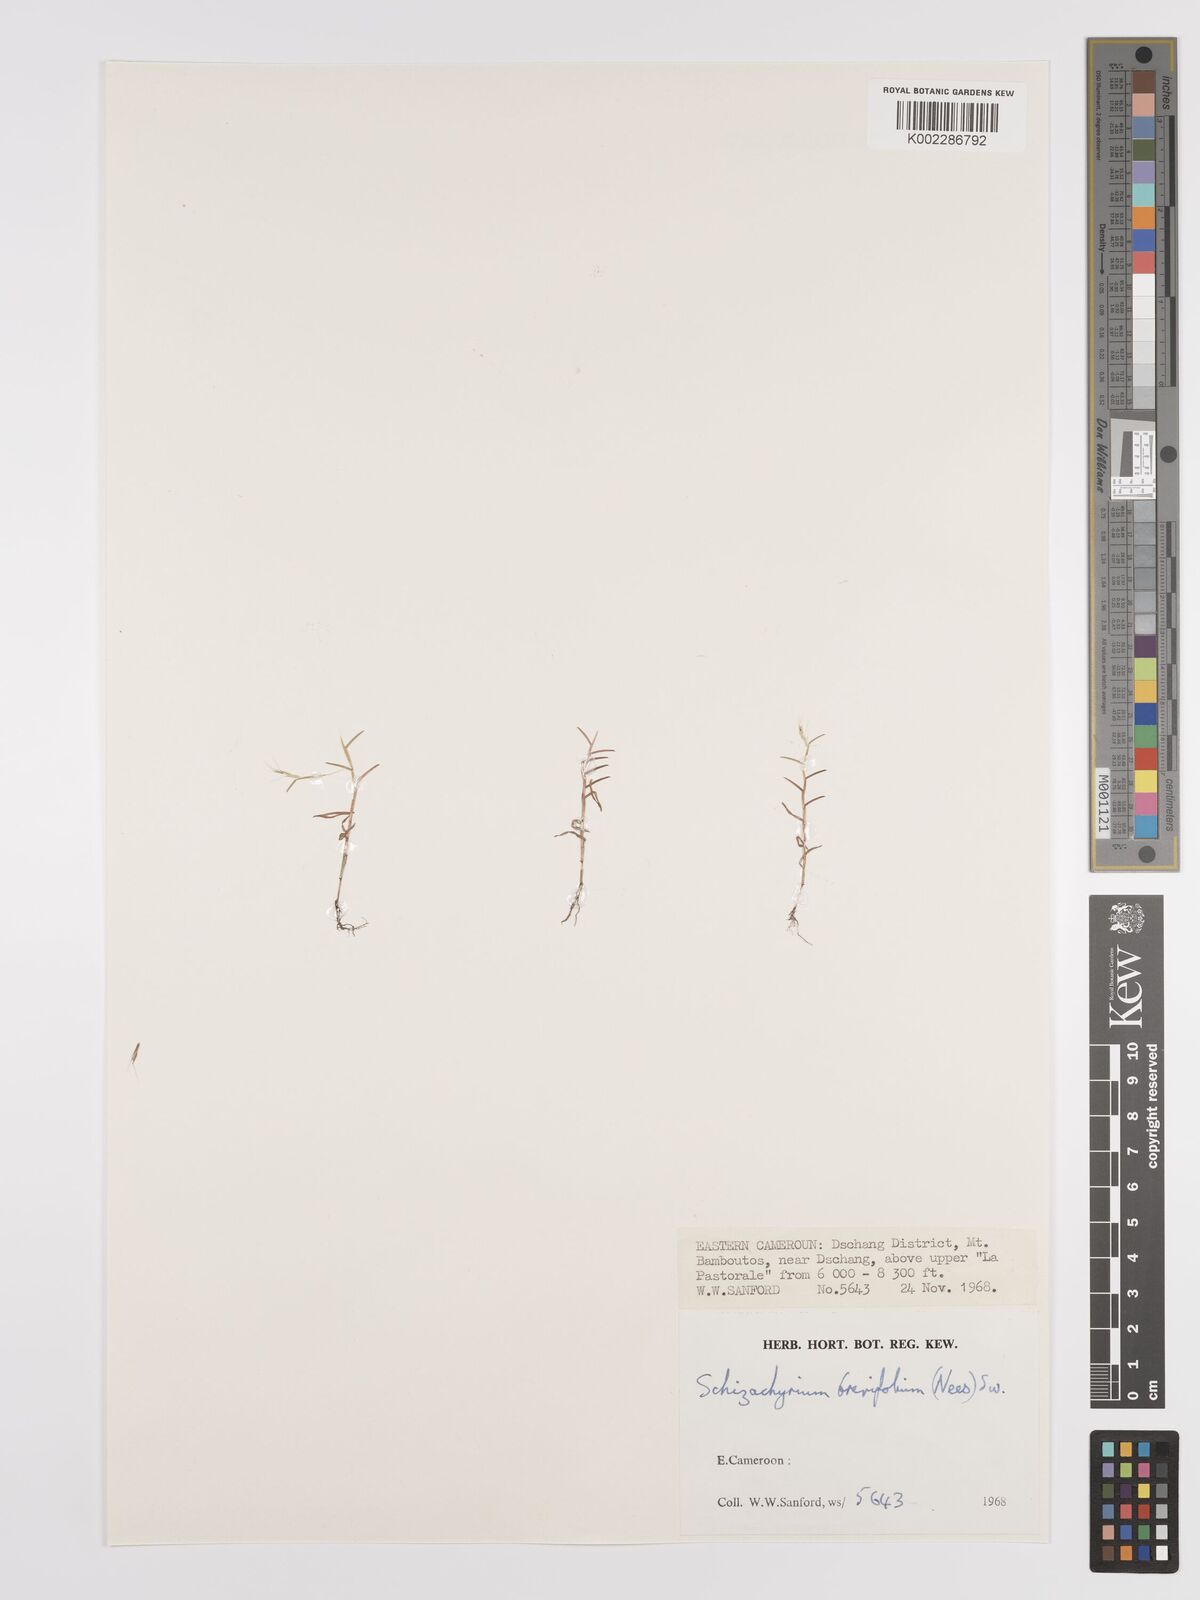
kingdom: Plantae
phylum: Tracheophyta
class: Liliopsida
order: Poales
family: Poaceae
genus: Schizachyrium
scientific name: Schizachyrium brevifolium
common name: Serillo dulce
